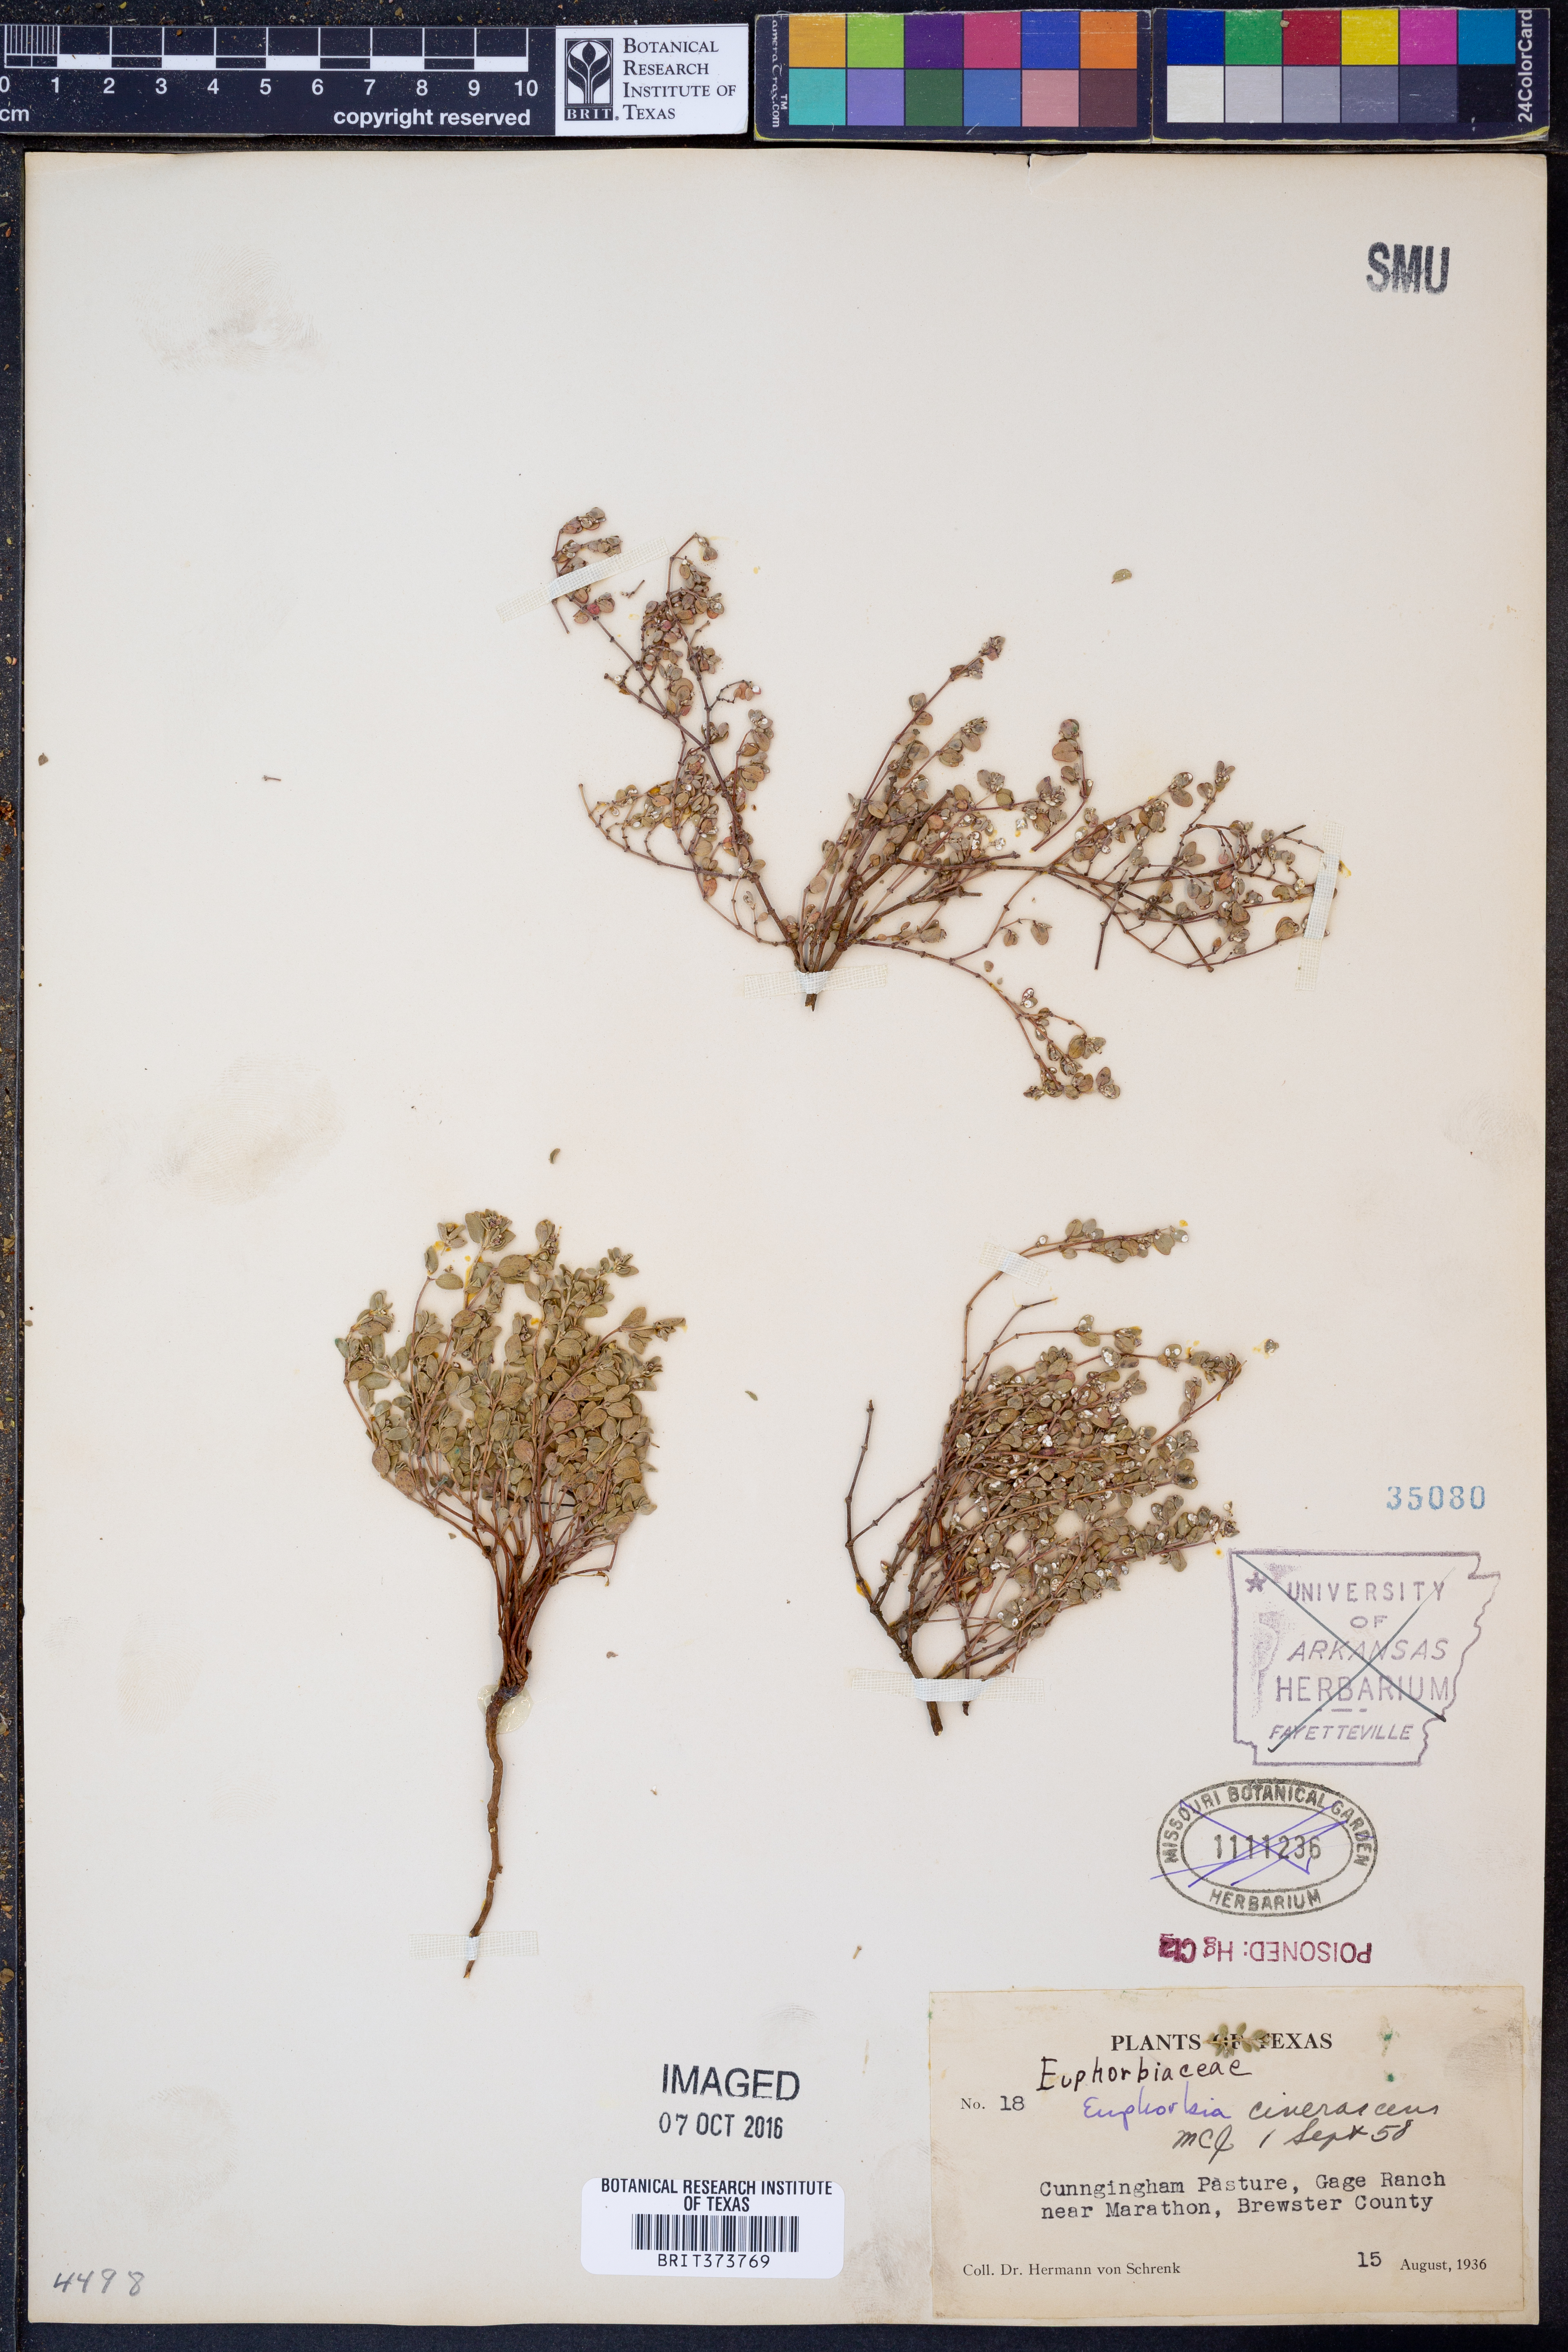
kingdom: Plantae
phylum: Tracheophyta
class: Magnoliopsida
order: Malpighiales
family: Euphorbiaceae
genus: Euphorbia
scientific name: Euphorbia cinerascens
